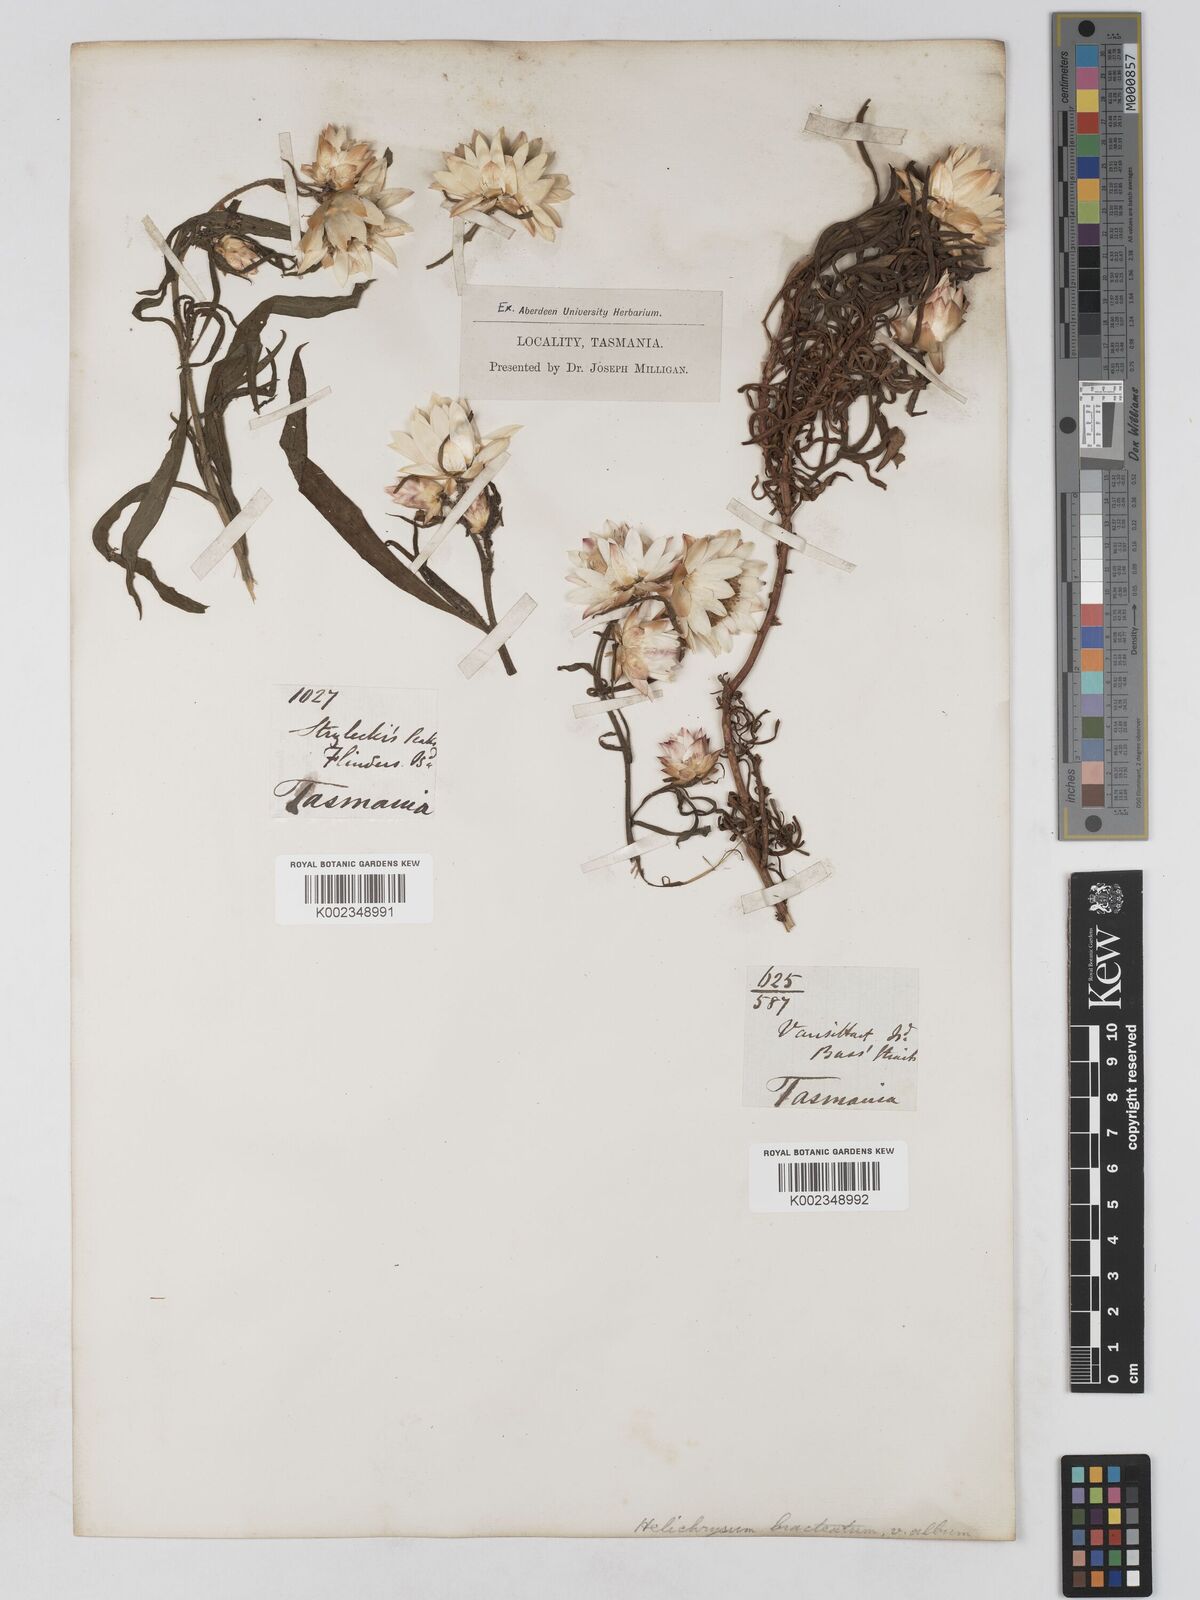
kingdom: Plantae
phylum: Tracheophyta
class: Magnoliopsida
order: Asterales
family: Asteraceae
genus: Xerochrysum
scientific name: Xerochrysum bracteatum
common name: Bracted strawflower
